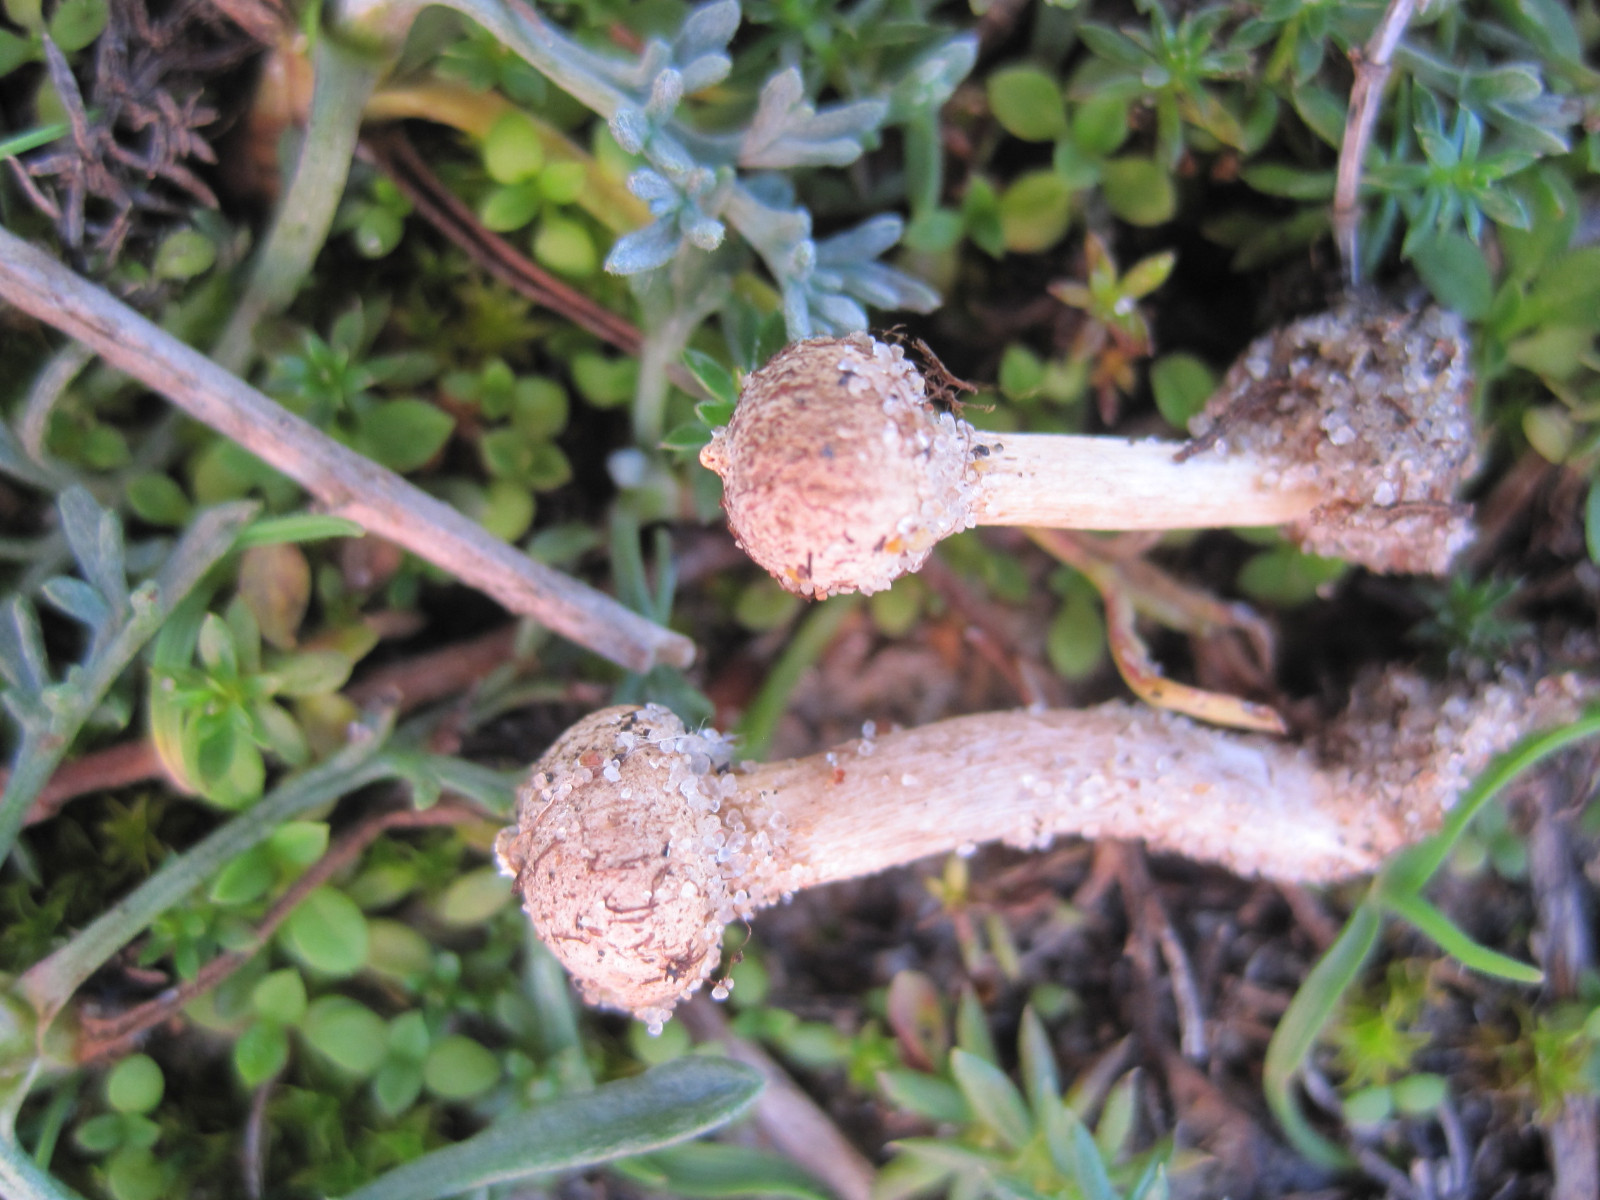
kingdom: Fungi
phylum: Basidiomycota
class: Agaricomycetes
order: Agaricales
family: Agaricaceae
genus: Tulostoma
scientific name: Tulostoma brumale
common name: vinter-stilkbovist
